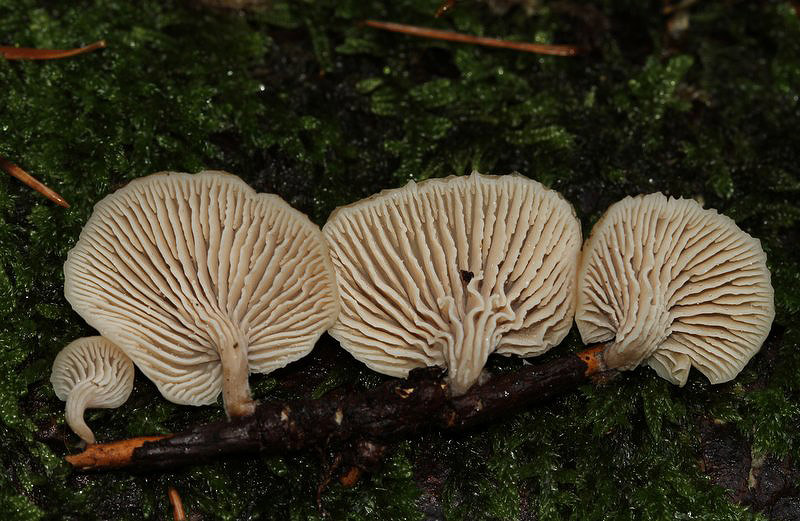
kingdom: Fungi
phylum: Basidiomycota
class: Agaricomycetes
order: Russulales
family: Auriscalpiaceae
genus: Lentinellus
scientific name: Lentinellus flabelliformis
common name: navle-savbladhat
